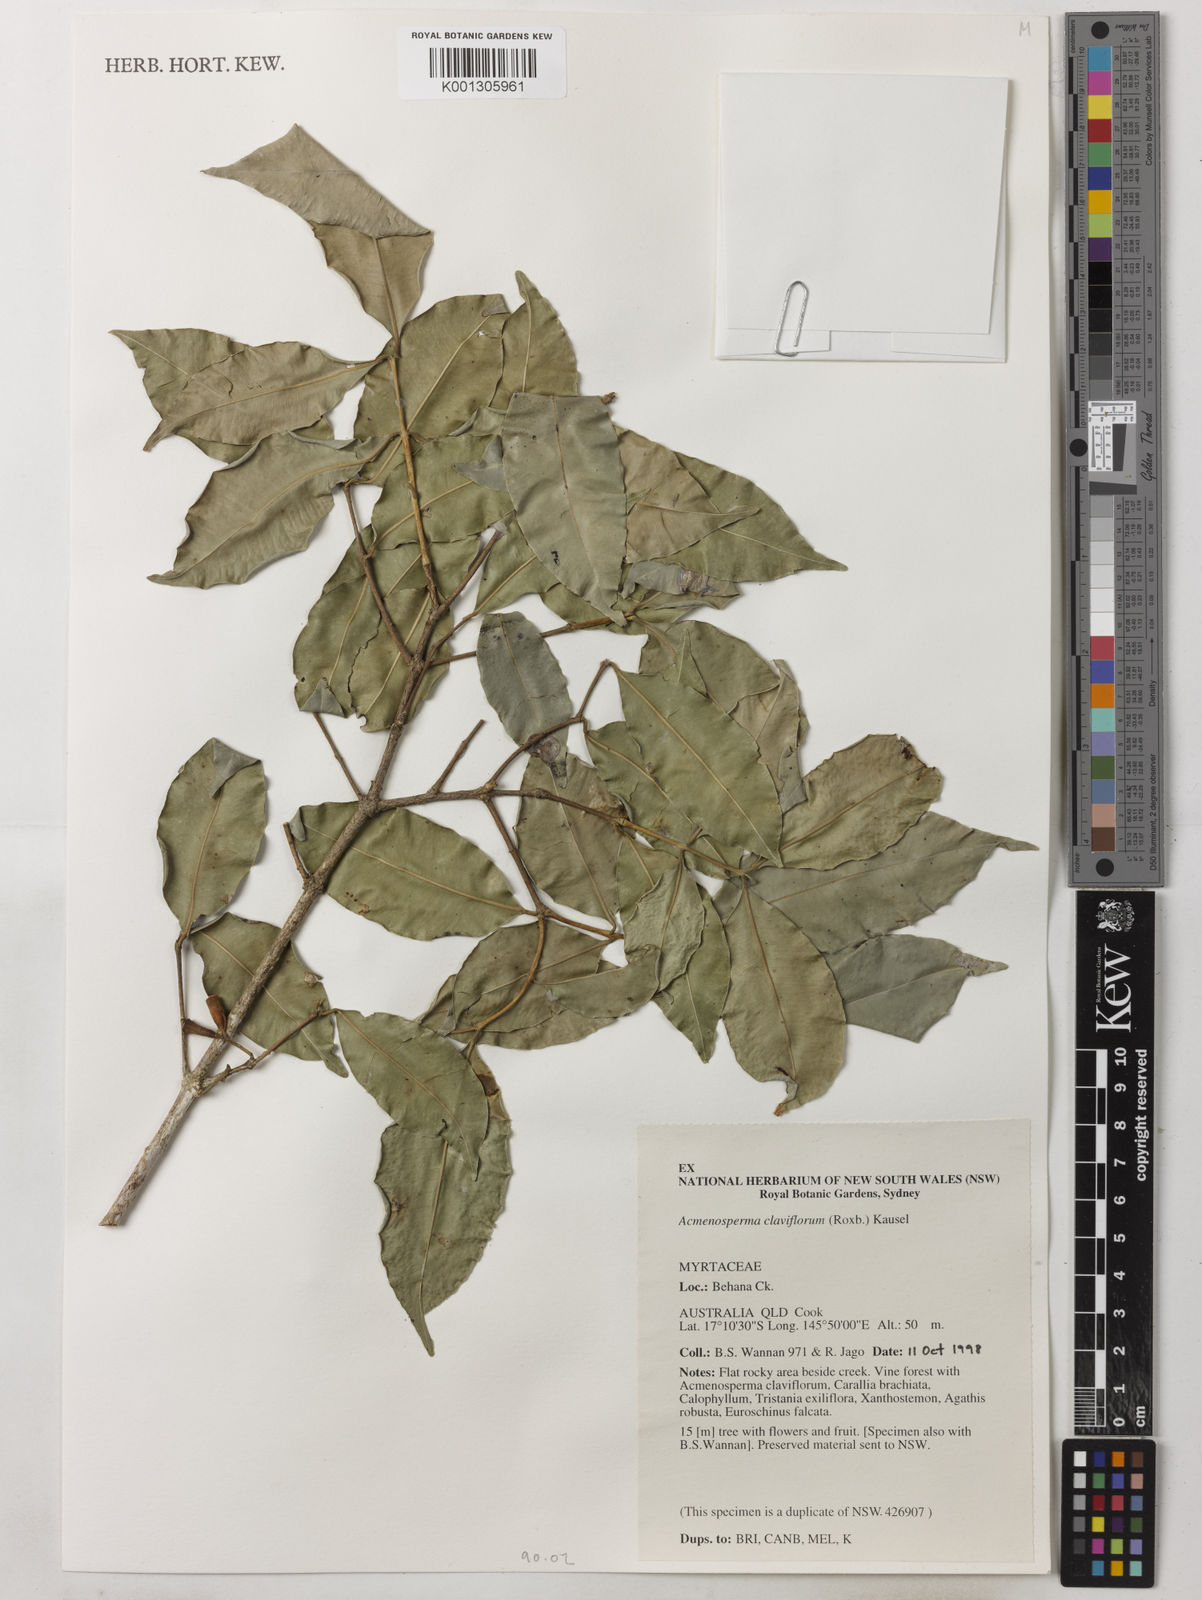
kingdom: Plantae
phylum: Tracheophyta
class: Magnoliopsida
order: Myrtales
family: Myrtaceae
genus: Syzygium
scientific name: Syzygium claviflorum
